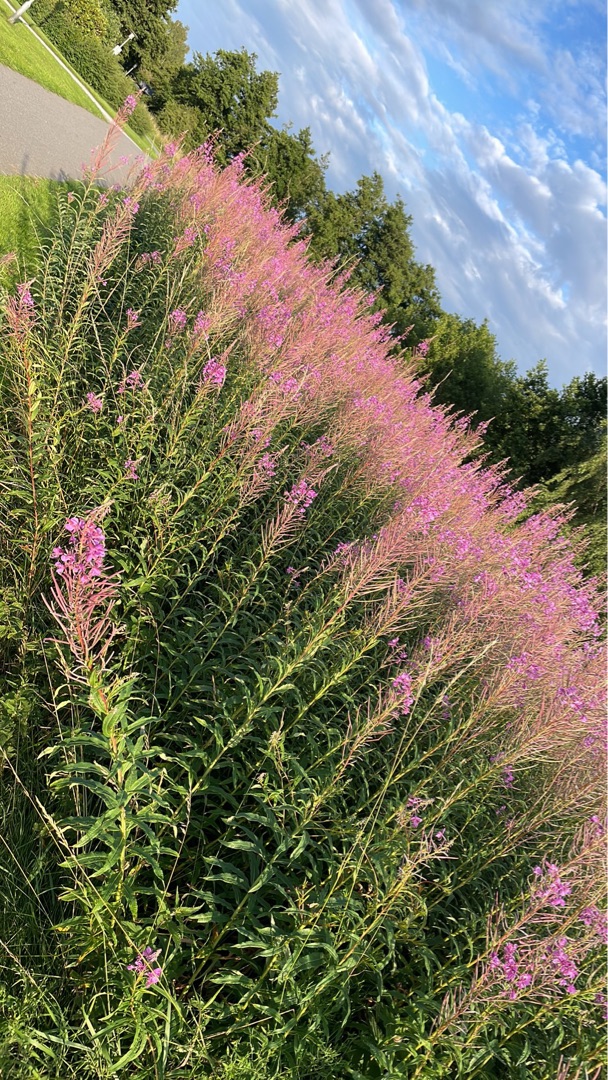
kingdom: Plantae
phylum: Tracheophyta
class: Magnoliopsida
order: Myrtales
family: Onagraceae
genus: Chamaenerion
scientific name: Chamaenerion angustifolium
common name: Gederams
